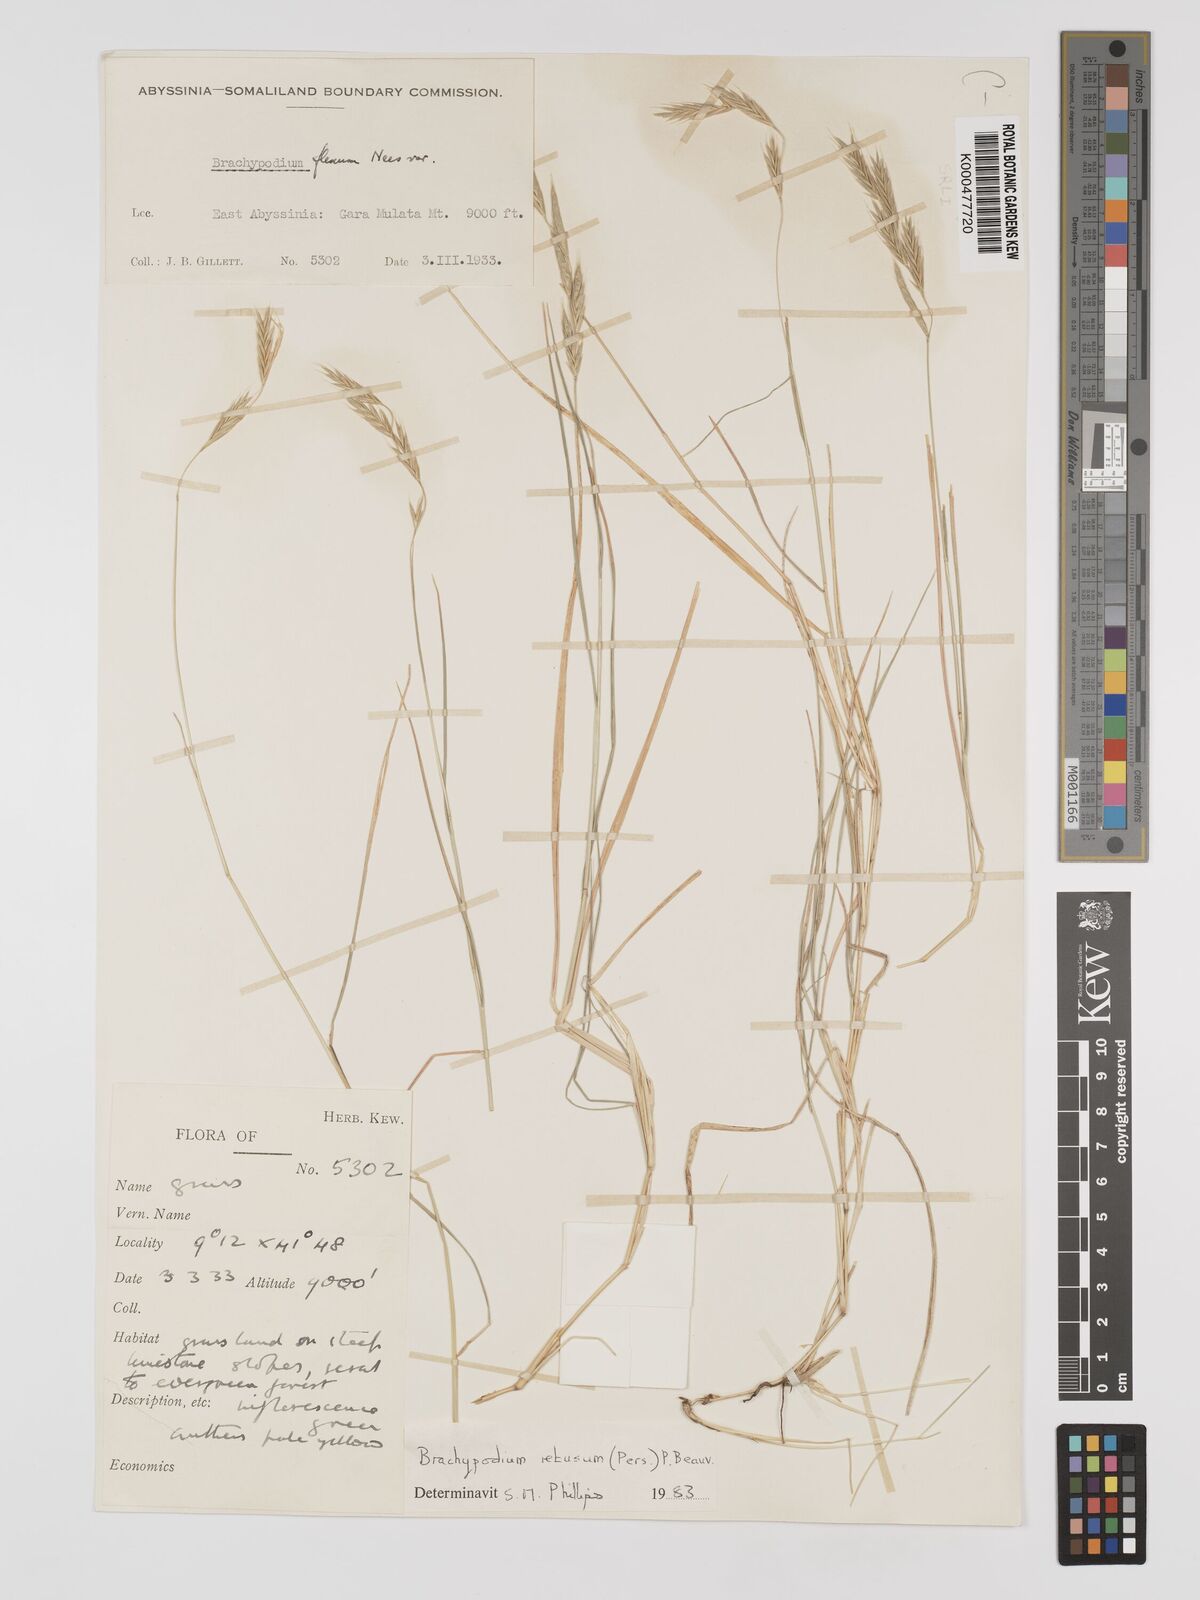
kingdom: Plantae
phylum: Tracheophyta
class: Liliopsida
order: Poales
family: Poaceae
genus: Brachypodium
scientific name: Brachypodium retusum
